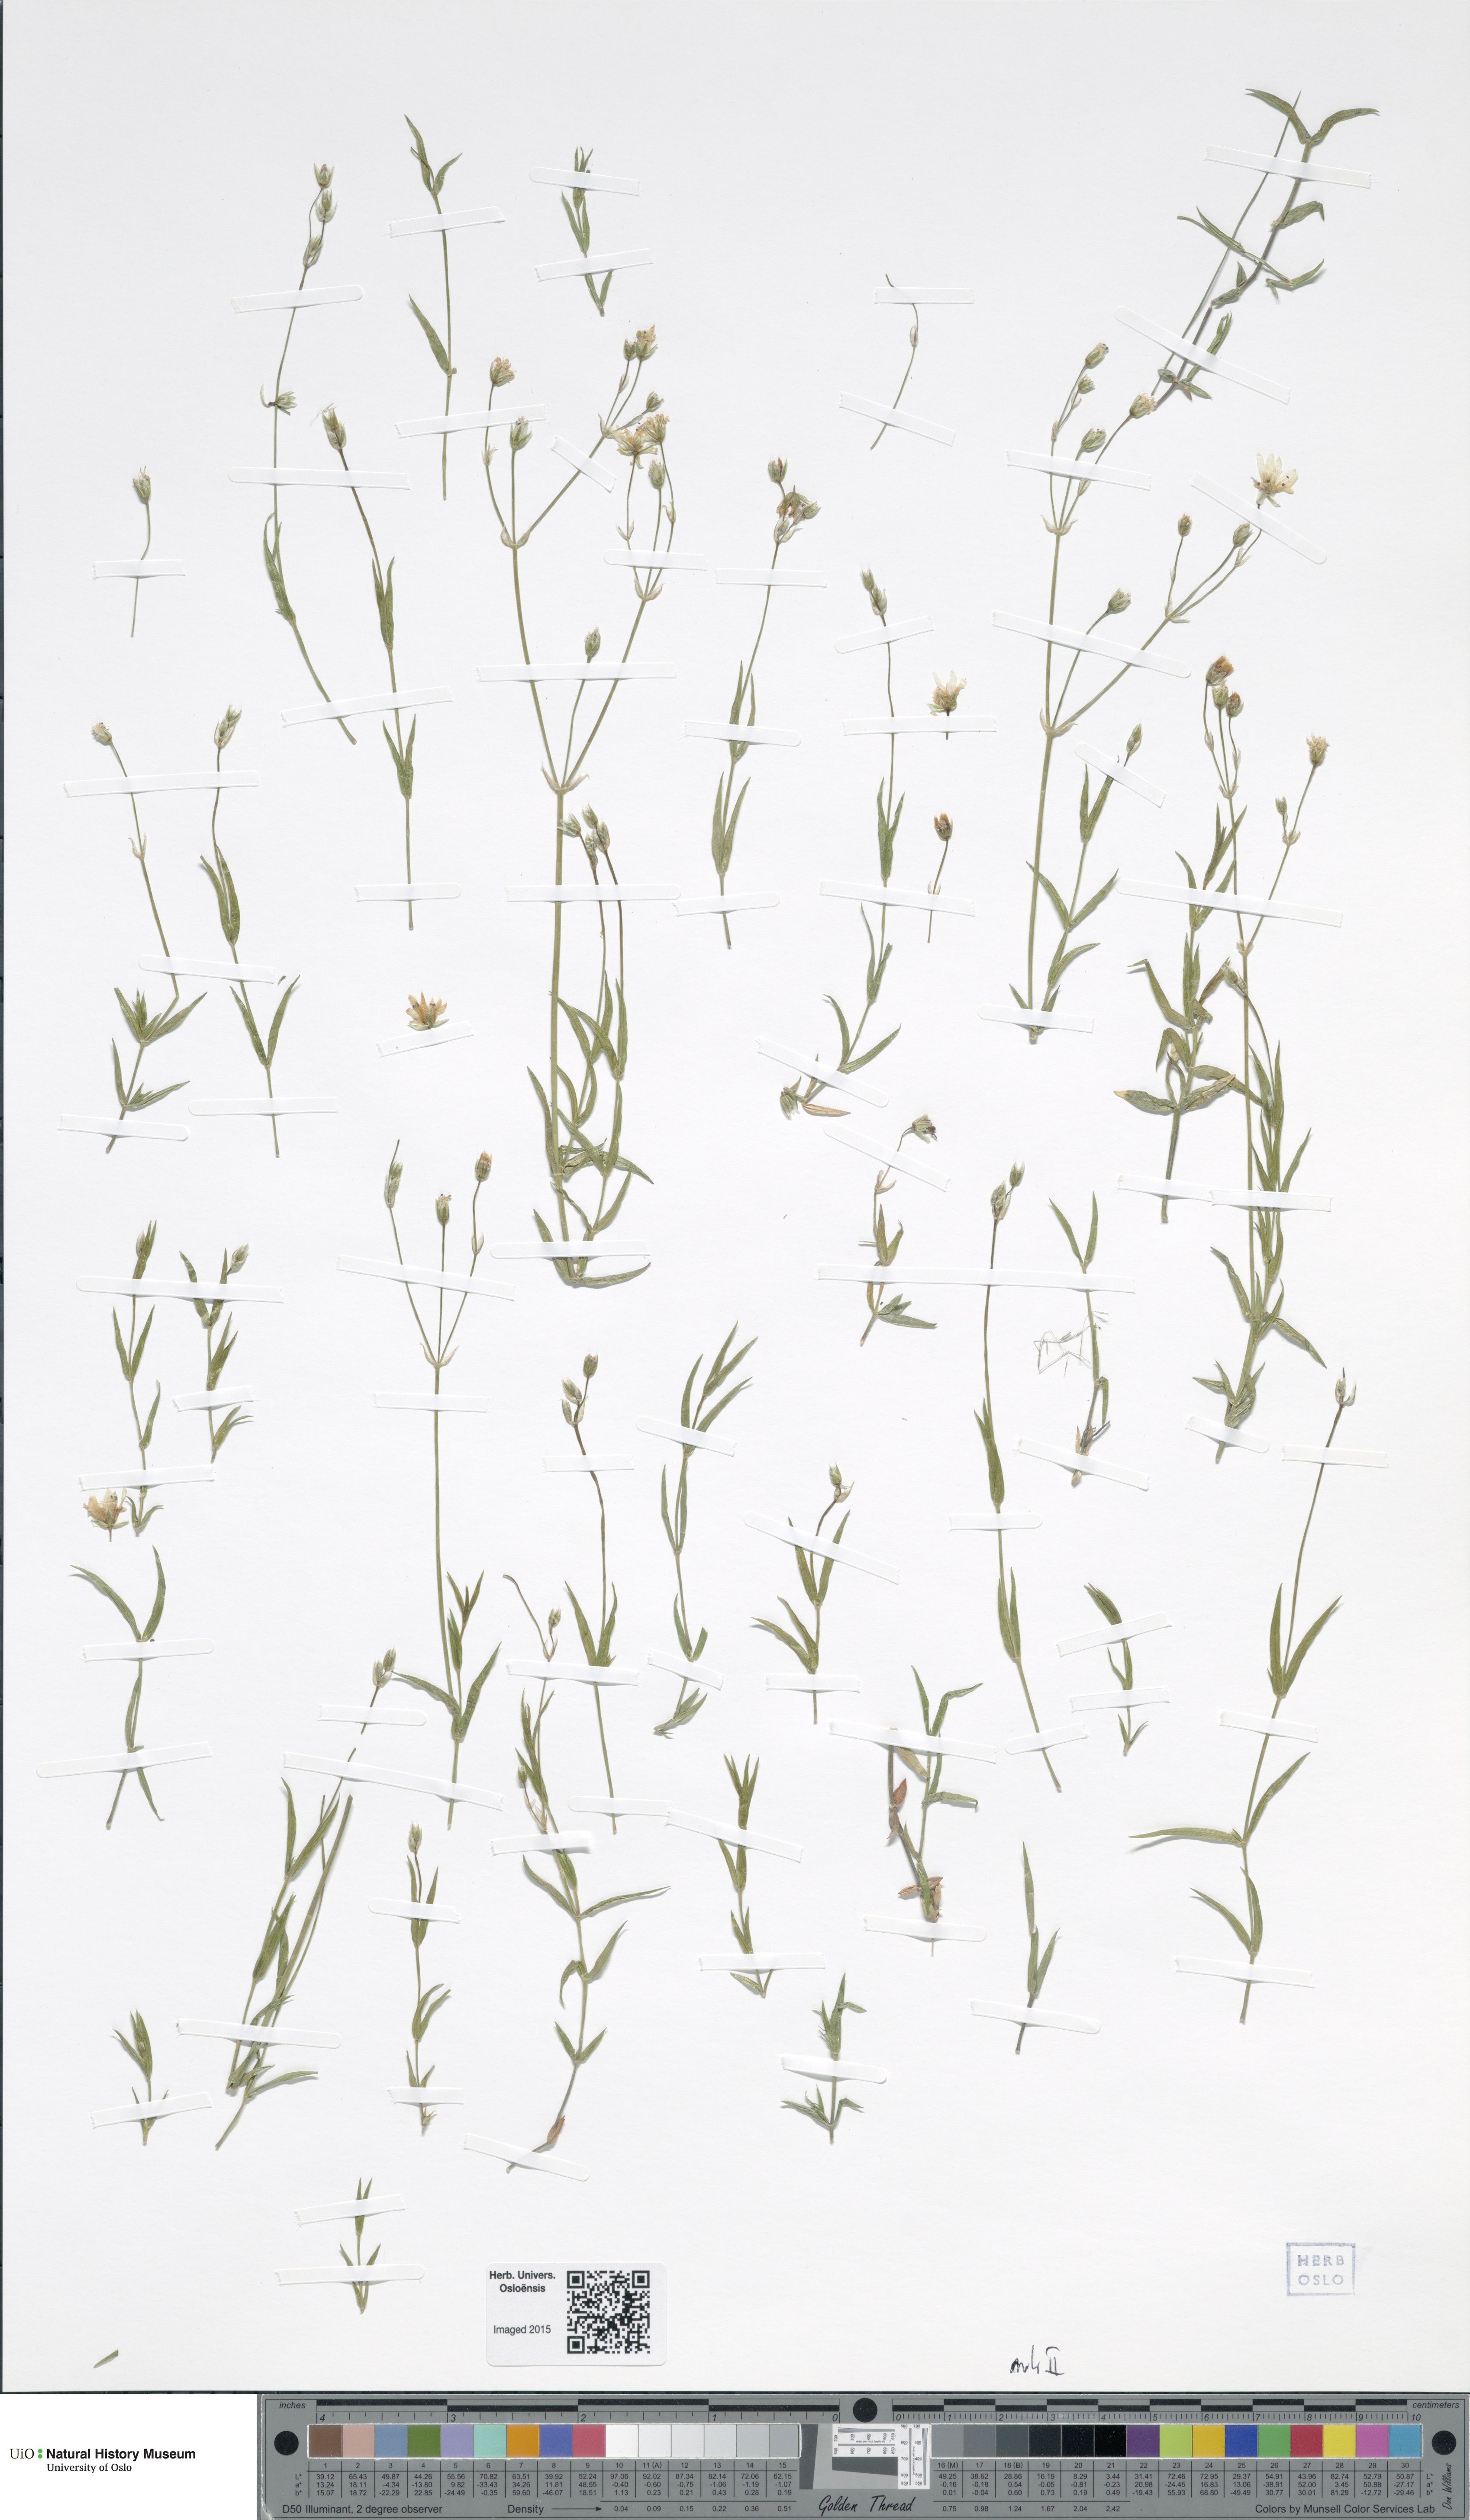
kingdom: Plantae
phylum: Tracheophyta
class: Magnoliopsida
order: Caryophyllales
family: Caryophyllaceae
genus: Stellaria
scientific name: Stellaria longipes
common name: Goldie's starwort
